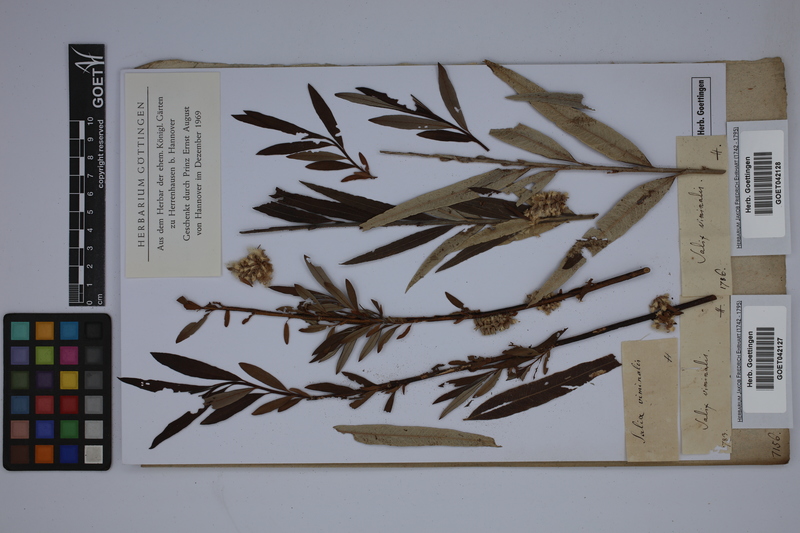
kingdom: Plantae
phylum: Tracheophyta
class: Magnoliopsida
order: Malpighiales
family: Salicaceae
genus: Salix
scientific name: Salix viminalis
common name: Osier
